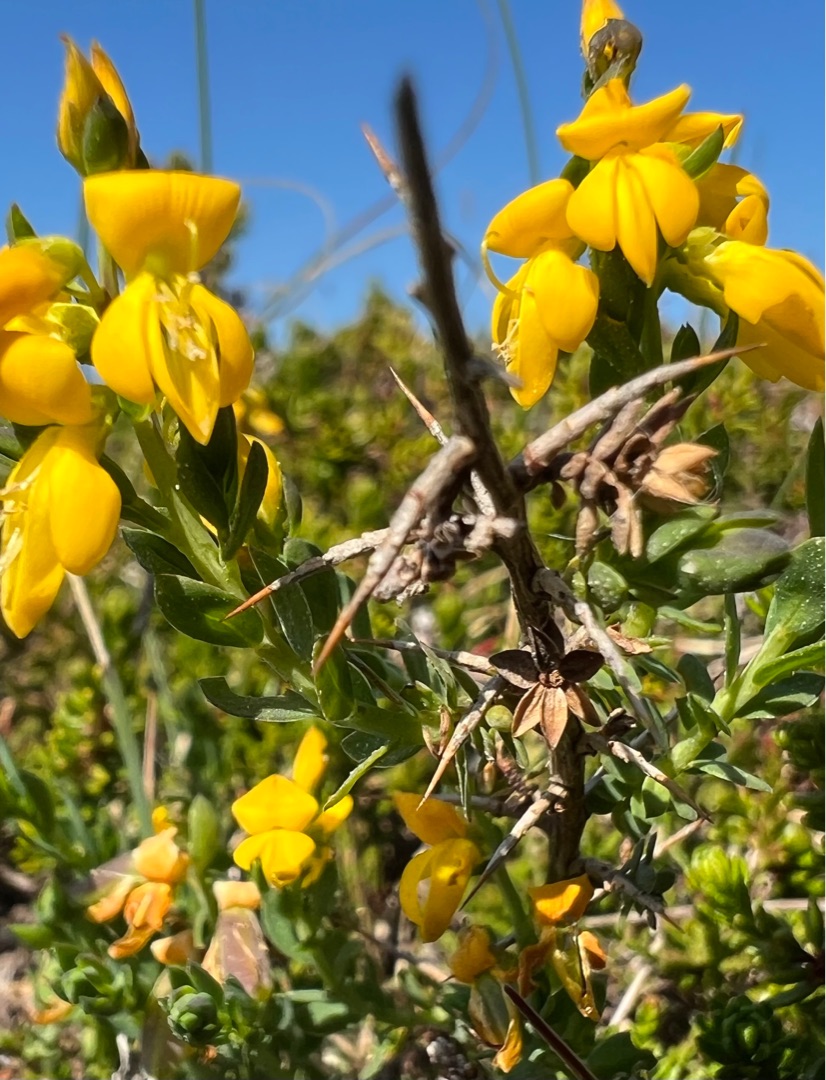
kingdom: Plantae
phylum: Tracheophyta
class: Magnoliopsida
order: Fabales
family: Fabaceae
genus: Genista
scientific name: Genista anglica
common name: Engelsk visse
